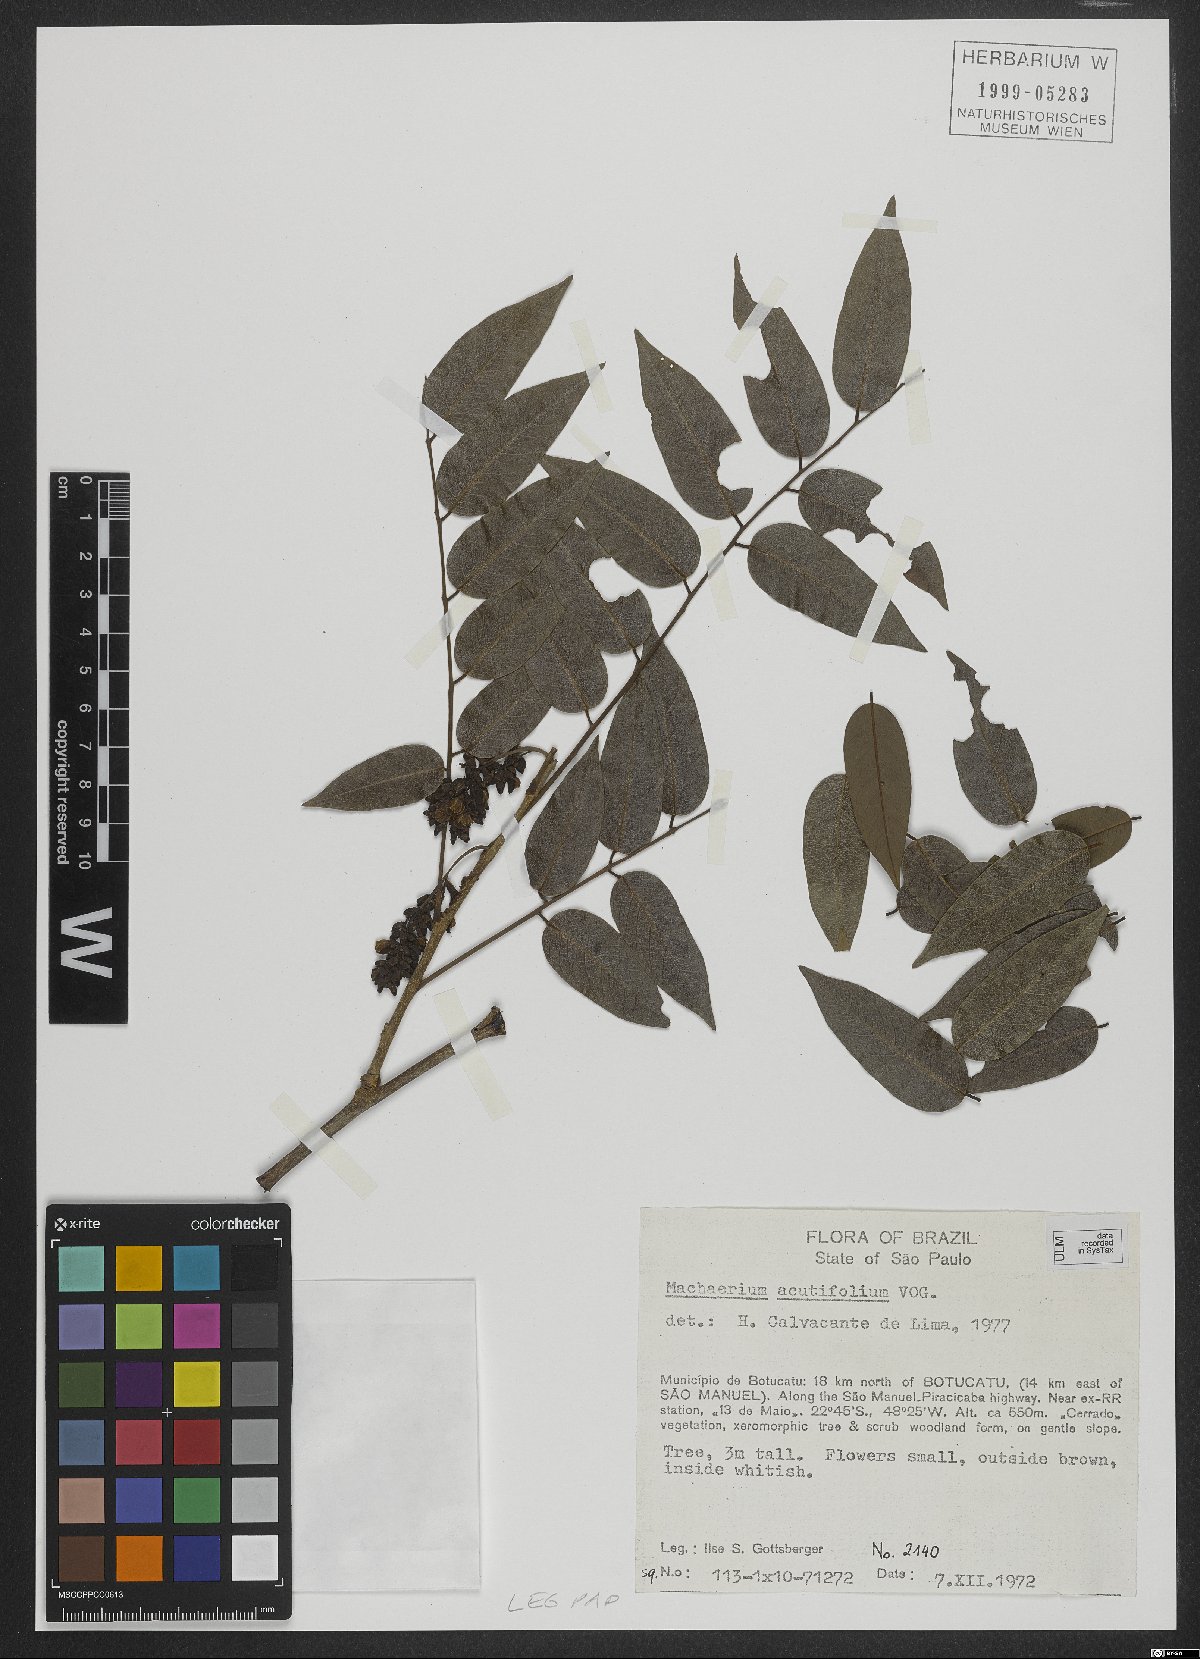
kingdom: Plantae
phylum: Tracheophyta
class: Magnoliopsida
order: Fabales
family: Fabaceae
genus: Machaerium
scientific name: Machaerium acutifolium
